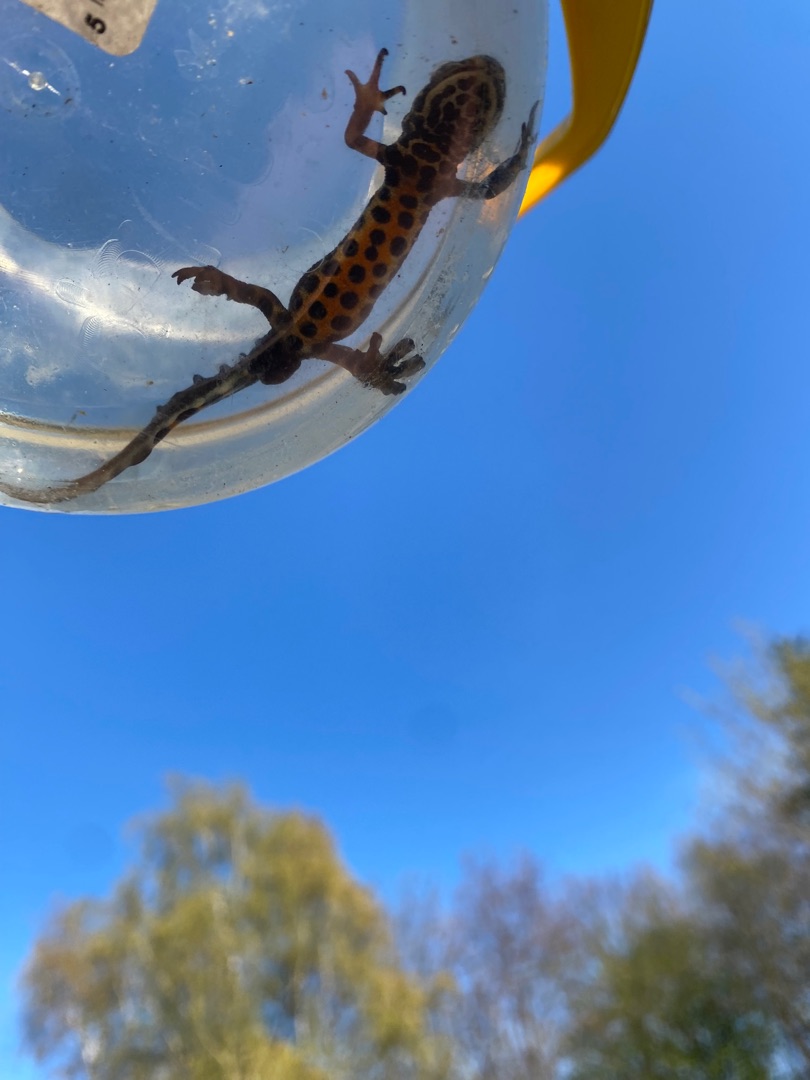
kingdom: Animalia
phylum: Chordata
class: Amphibia
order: Caudata
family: Salamandridae
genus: Lissotriton
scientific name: Lissotriton vulgaris
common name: Lille vandsalamander
